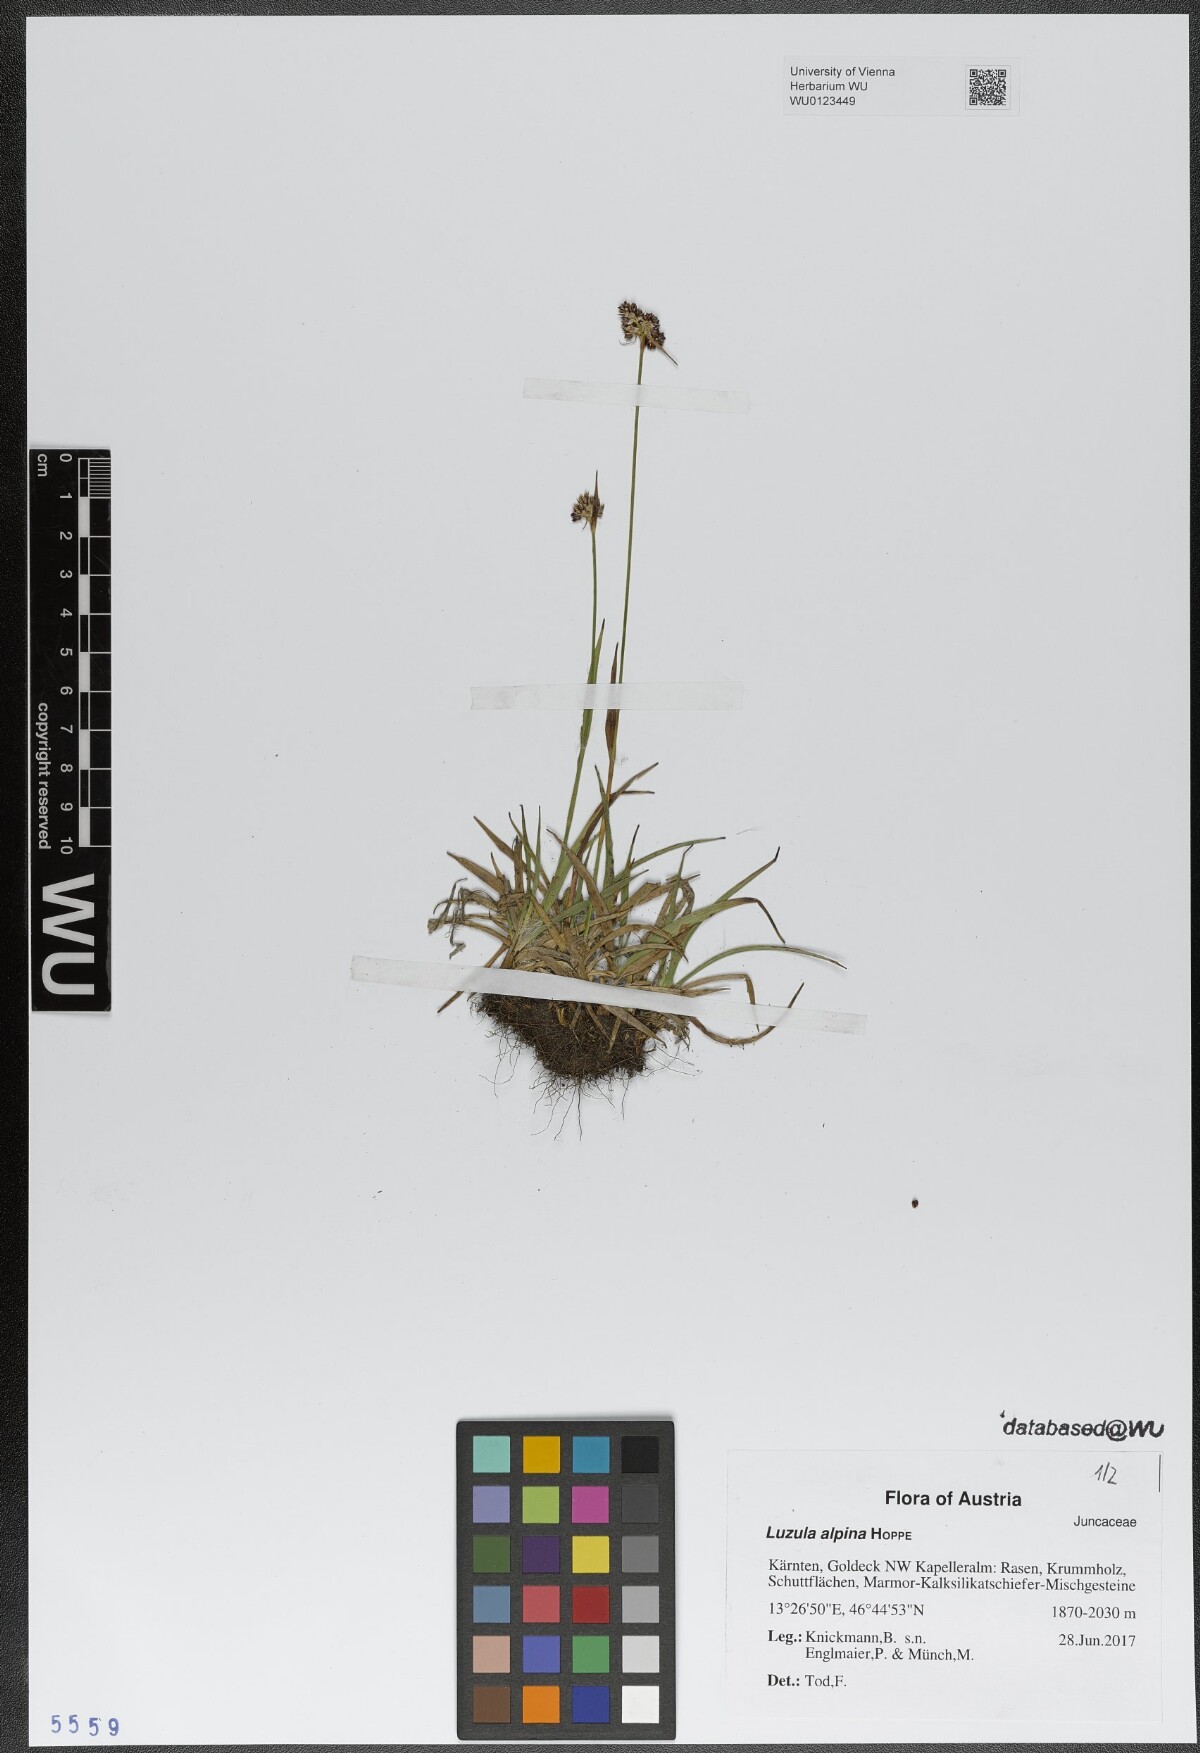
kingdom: Plantae
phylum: Tracheophyta
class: Liliopsida
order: Poales
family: Juncaceae
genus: Luzula
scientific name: Luzula alpina
